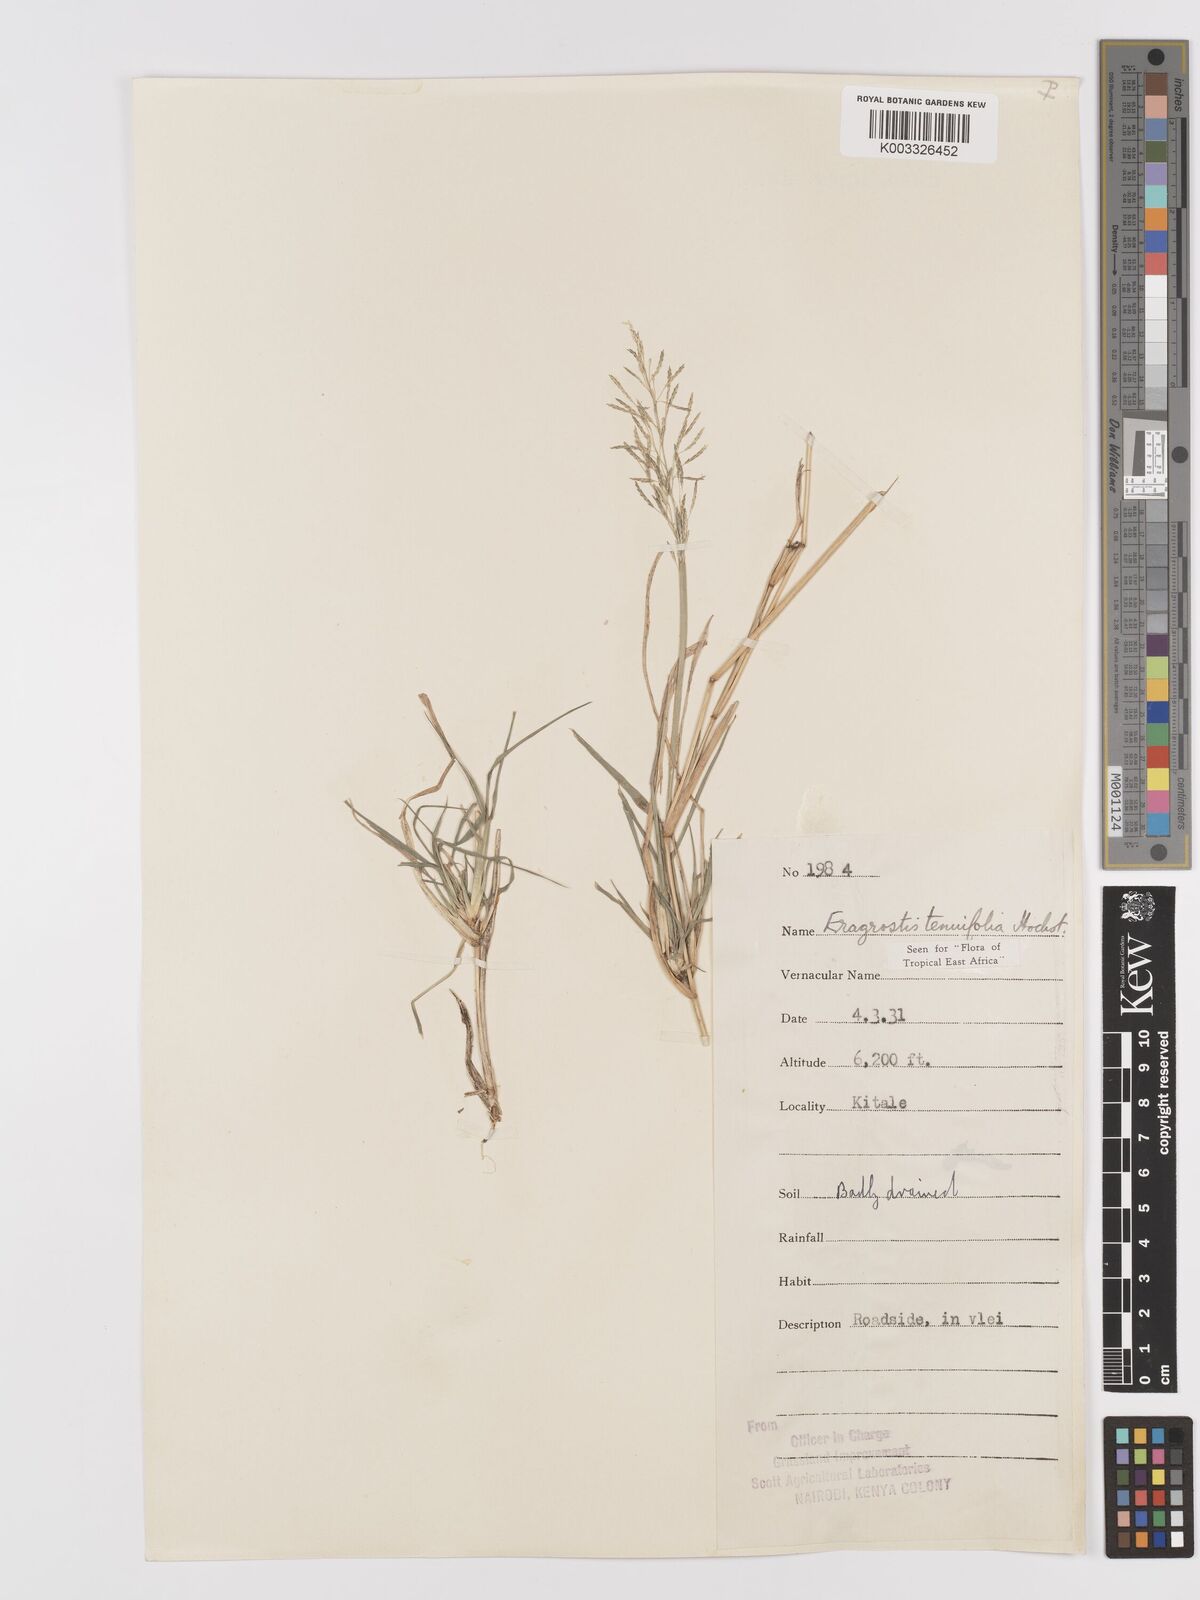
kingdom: Plantae
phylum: Tracheophyta
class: Liliopsida
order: Poales
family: Poaceae
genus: Eragrostis
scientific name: Eragrostis tenuifolia
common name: Elastic grass
